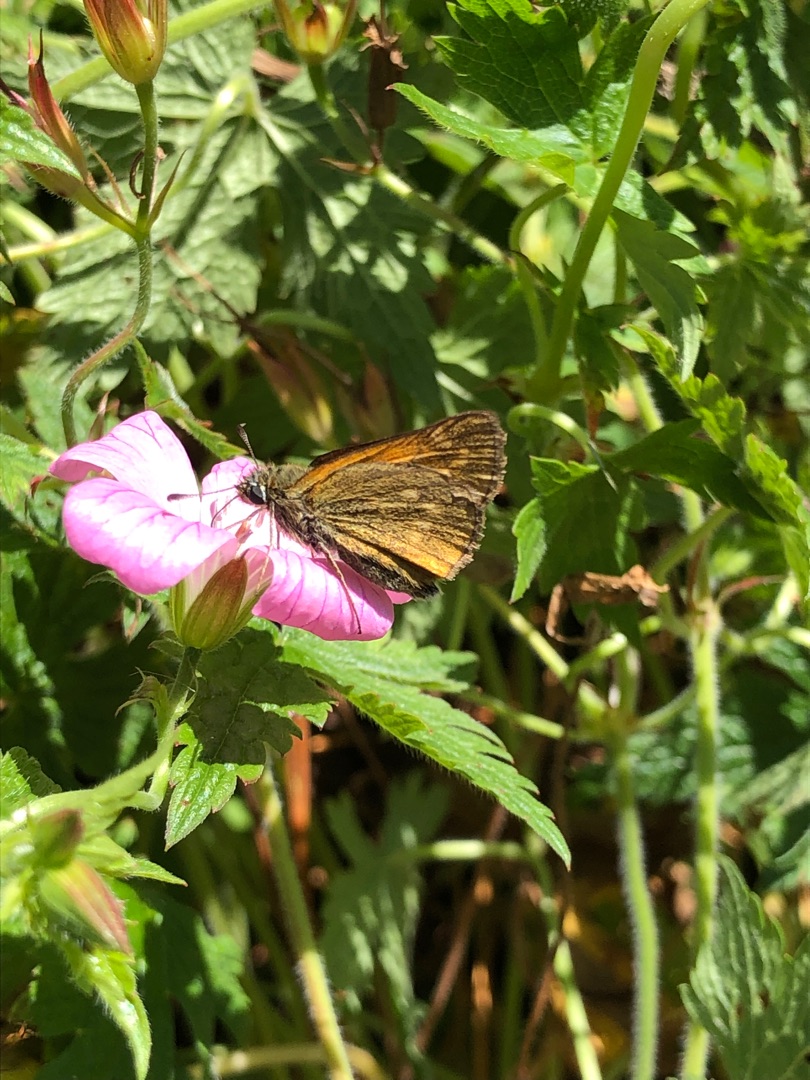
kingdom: Animalia
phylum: Arthropoda
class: Insecta
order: Lepidoptera
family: Hesperiidae
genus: Ochlodes
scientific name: Ochlodes venata
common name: Stor bredpande
